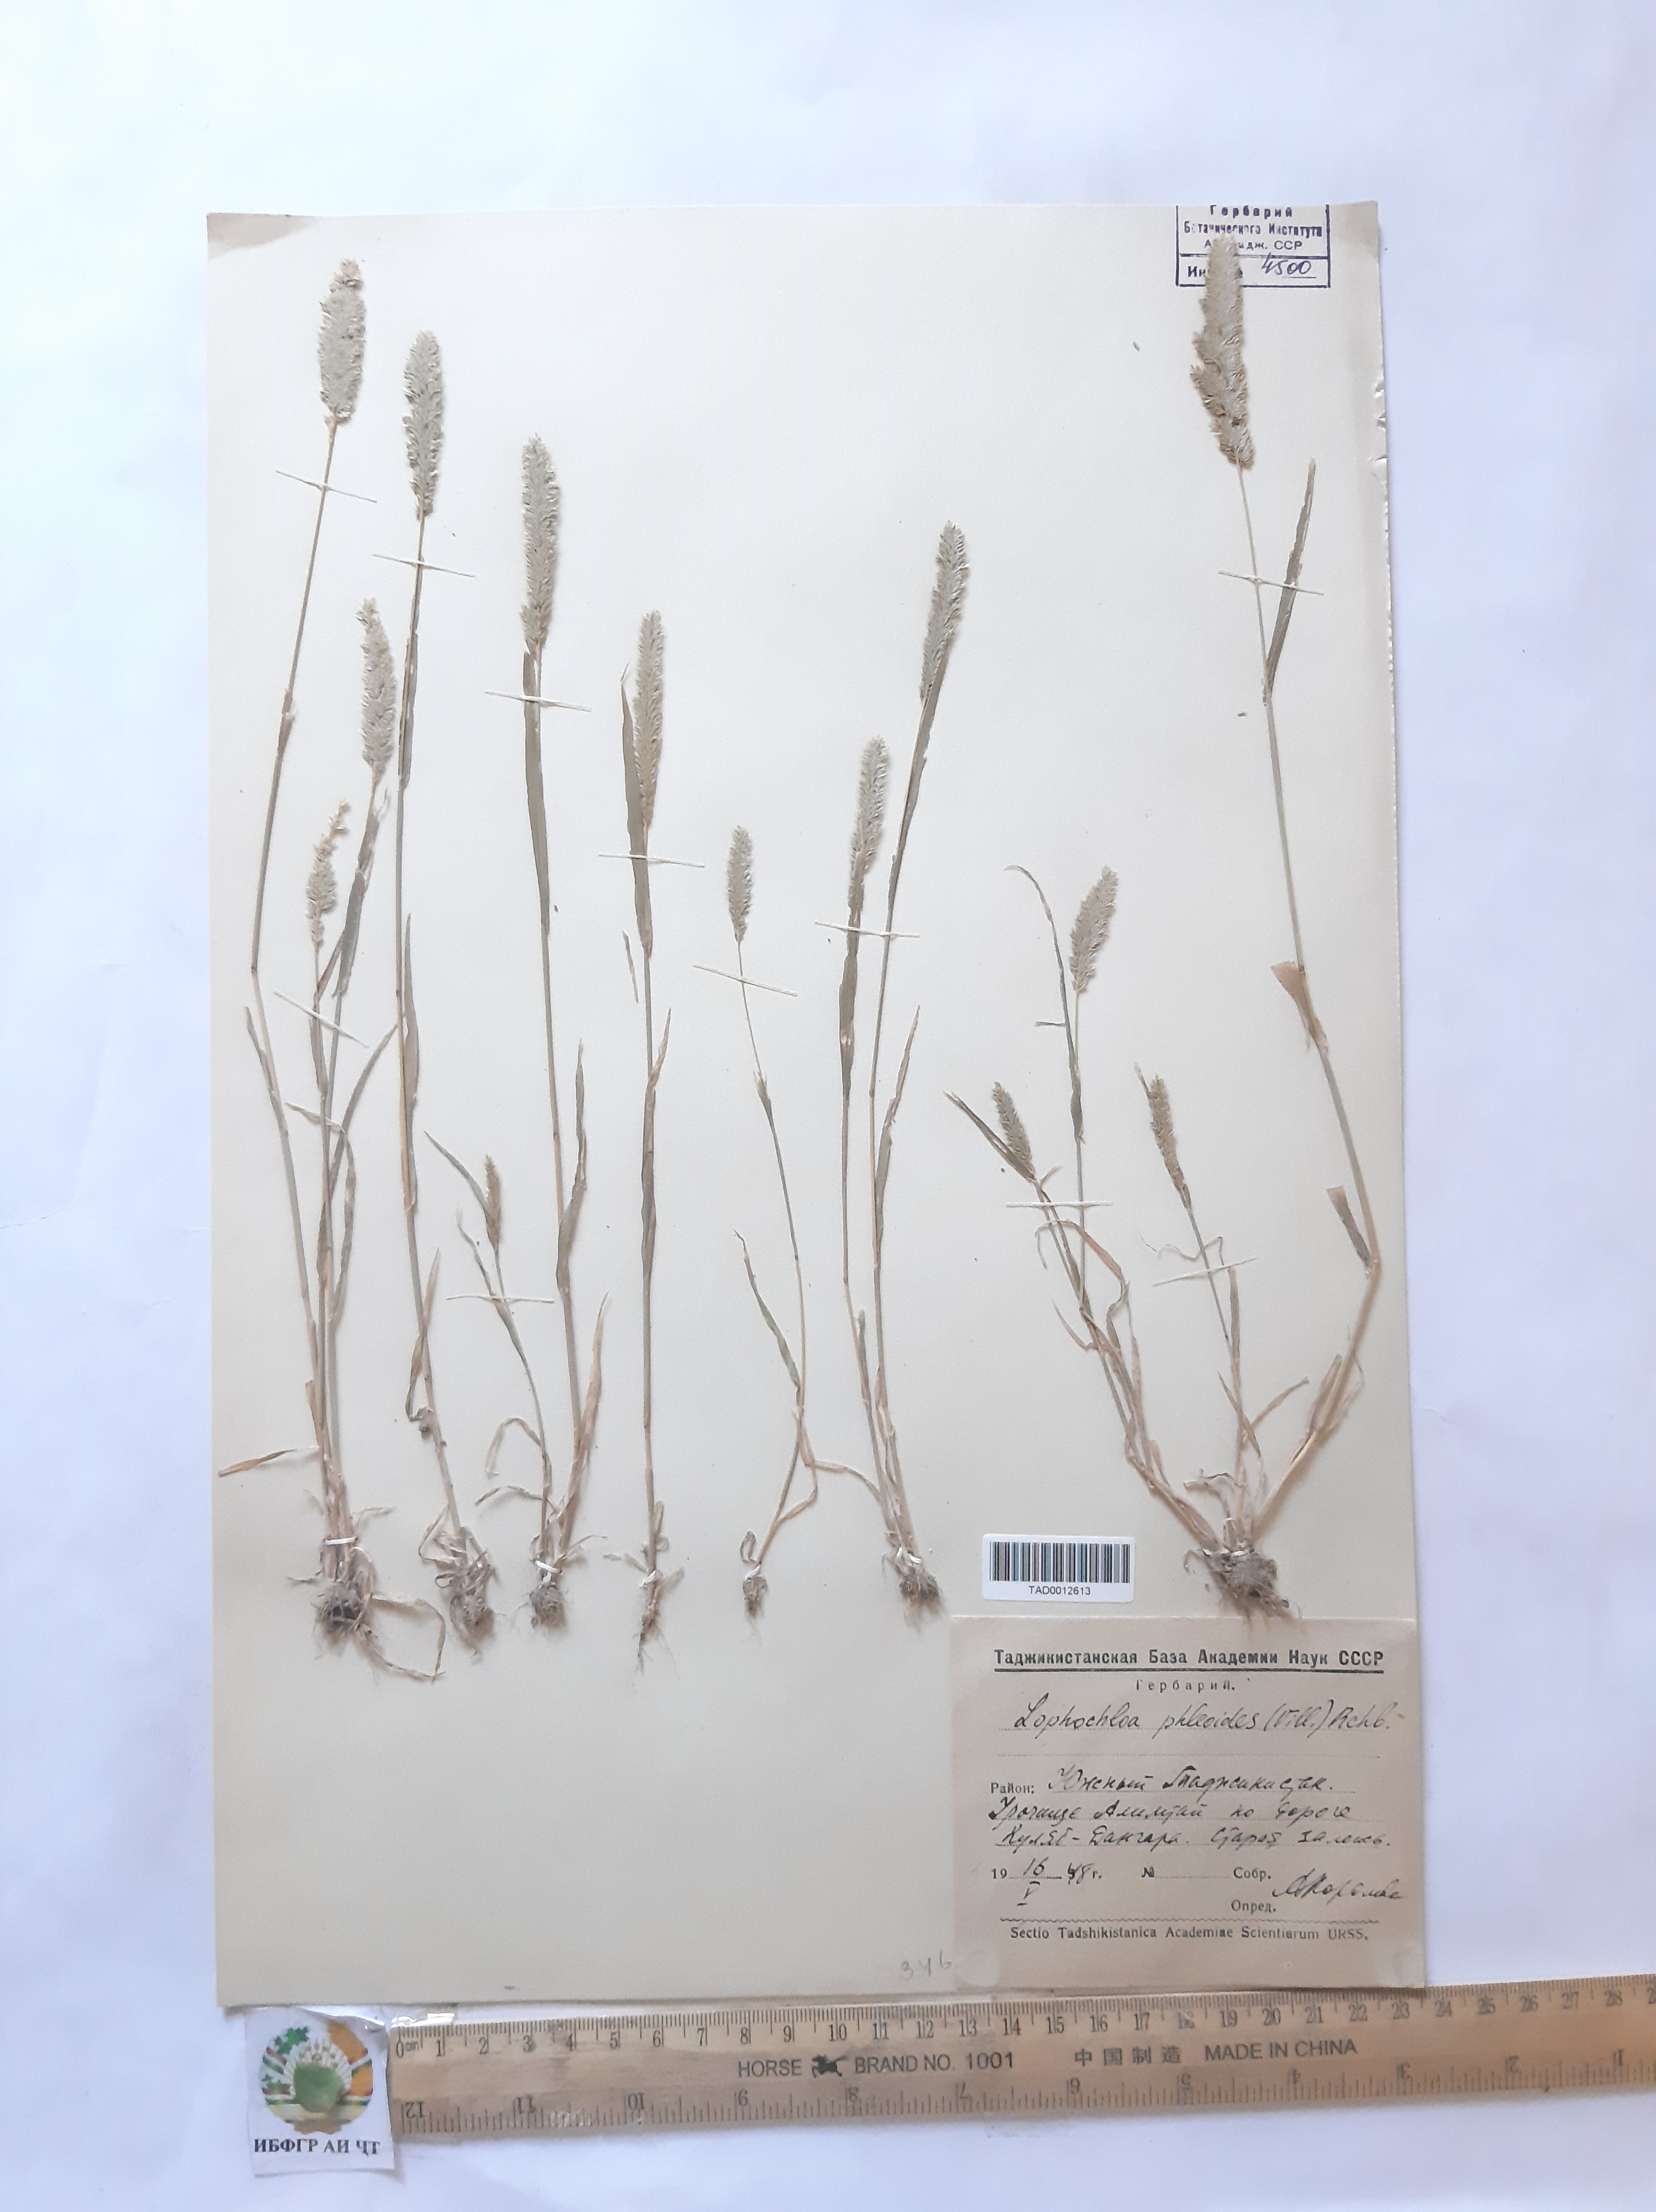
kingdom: Plantae
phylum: Tracheophyta
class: Liliopsida
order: Poales
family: Poaceae
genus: Rostraria
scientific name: Rostraria cristata
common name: Mediterranean hair-grass
